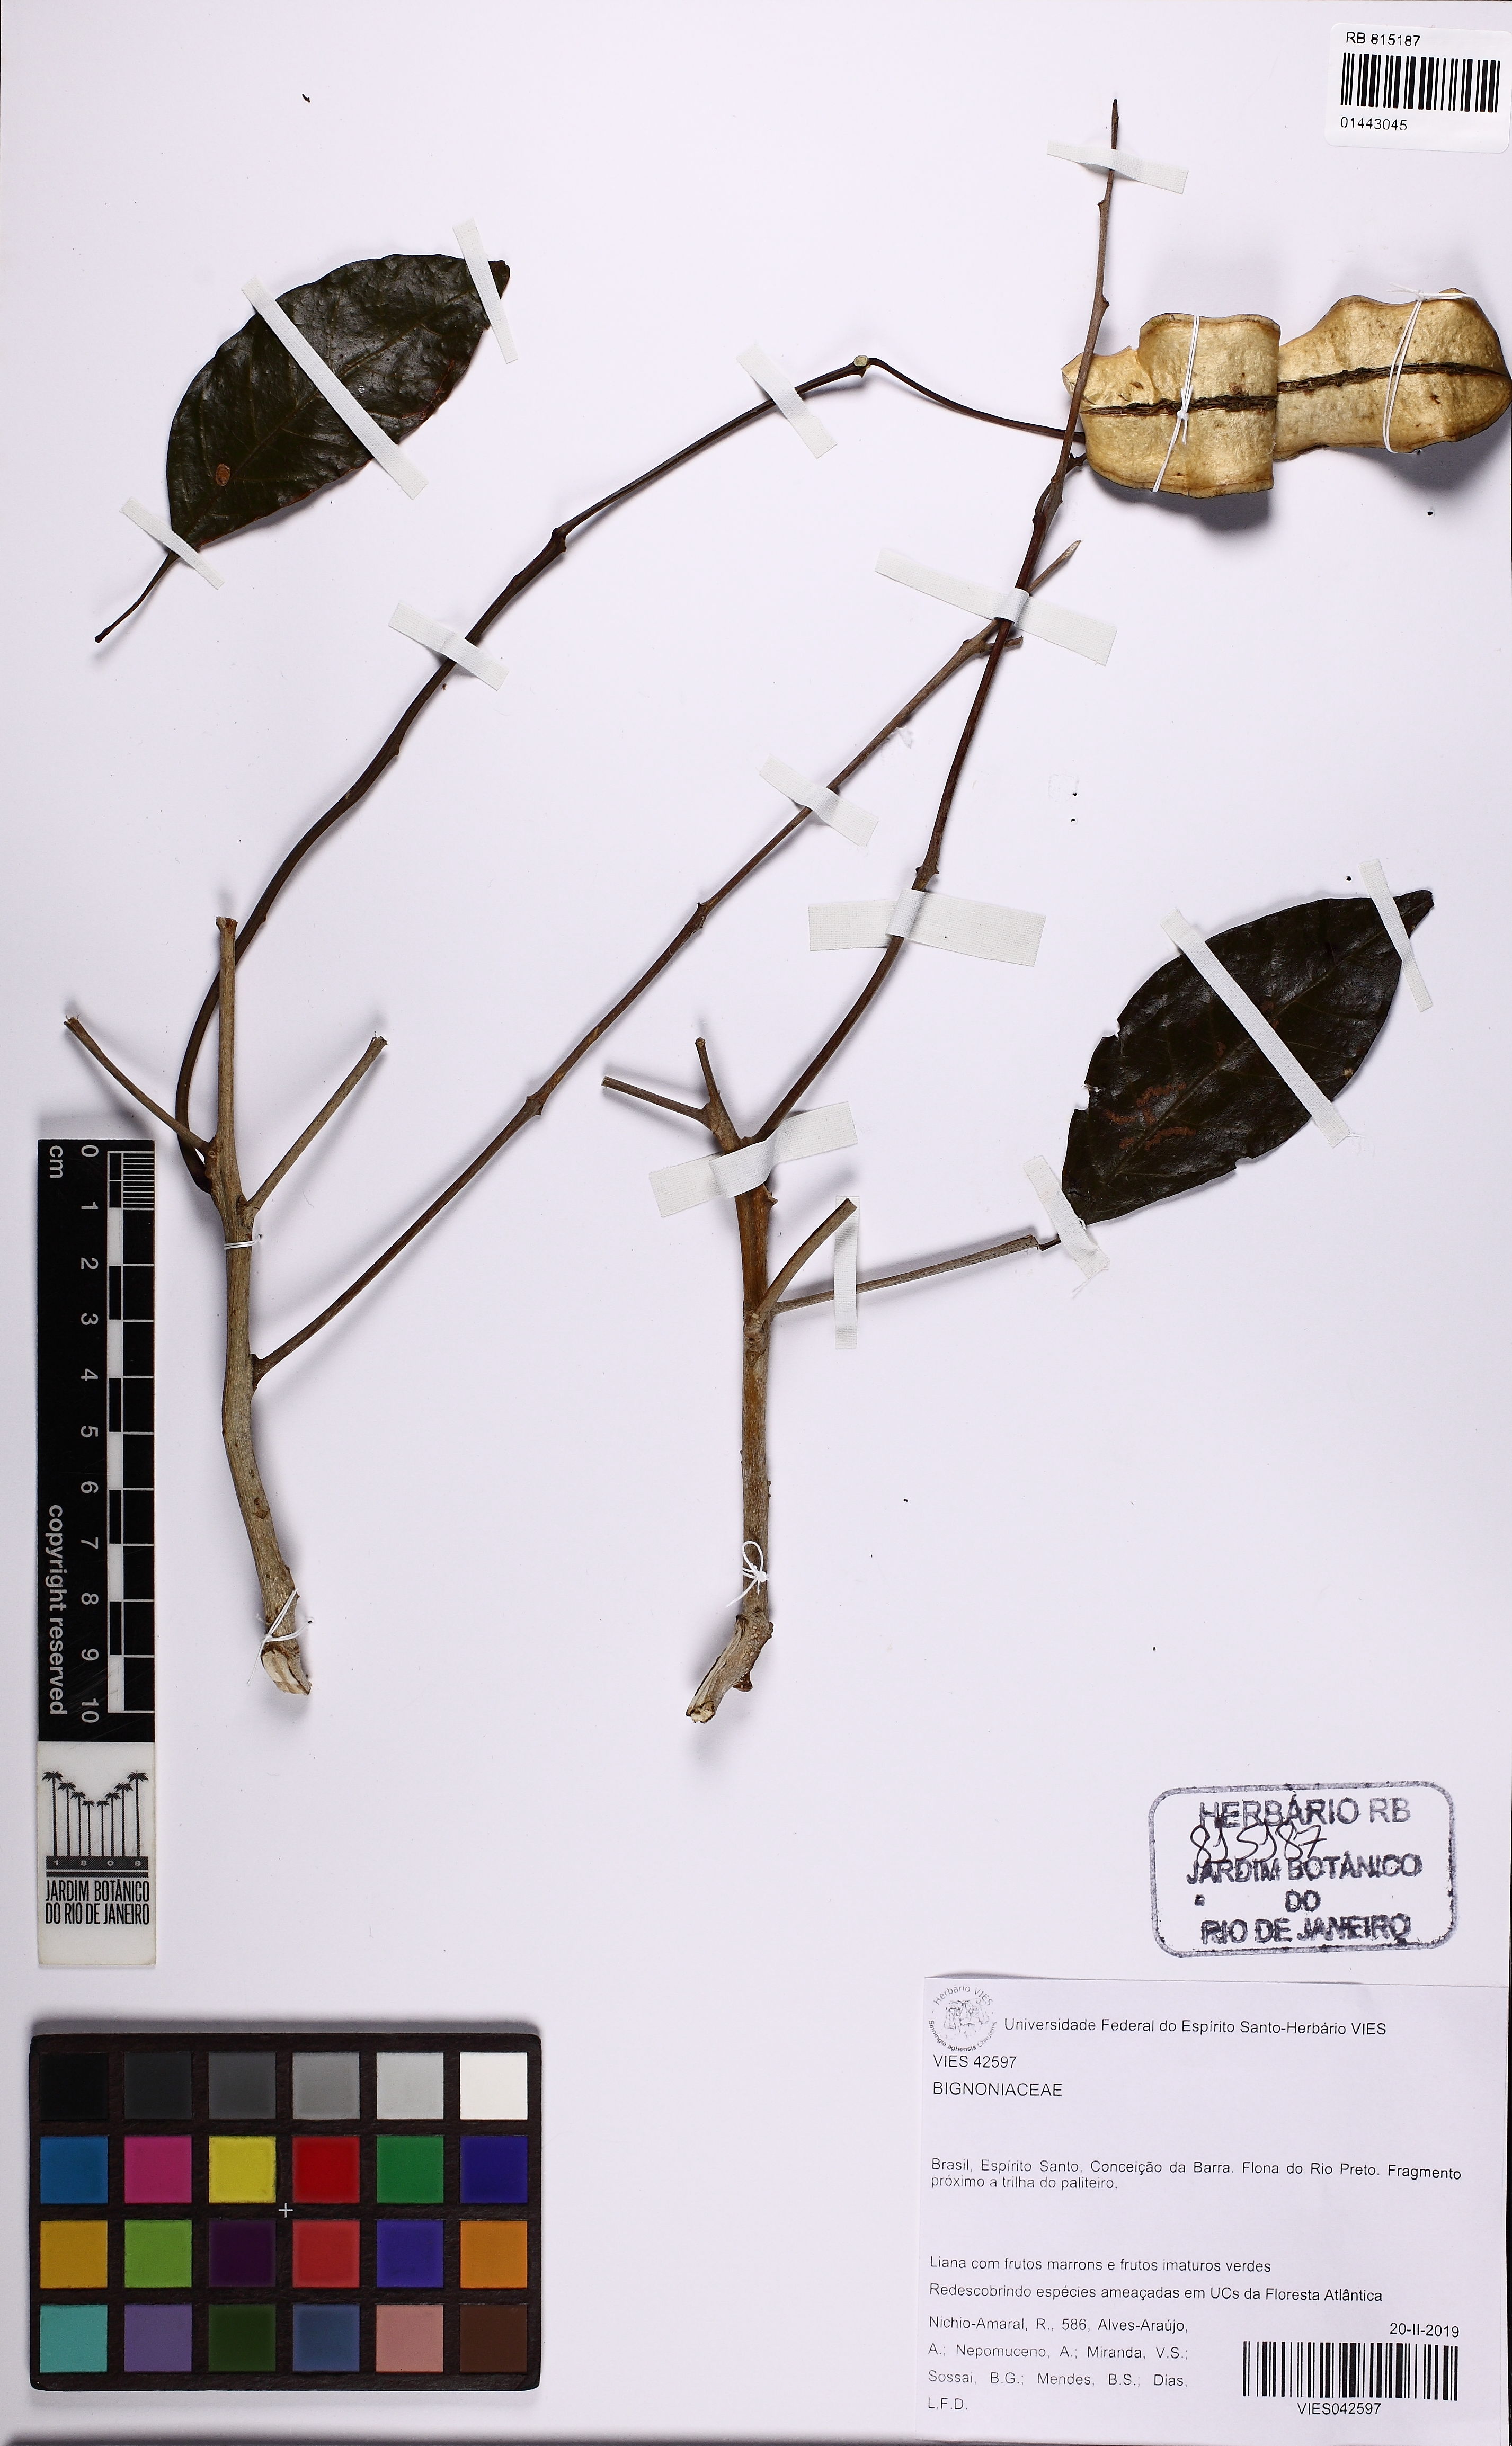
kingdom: Plantae
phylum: Tracheophyta
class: Magnoliopsida
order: Lamiales
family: Bignoniaceae
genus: Jacaranda
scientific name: Jacaranda
